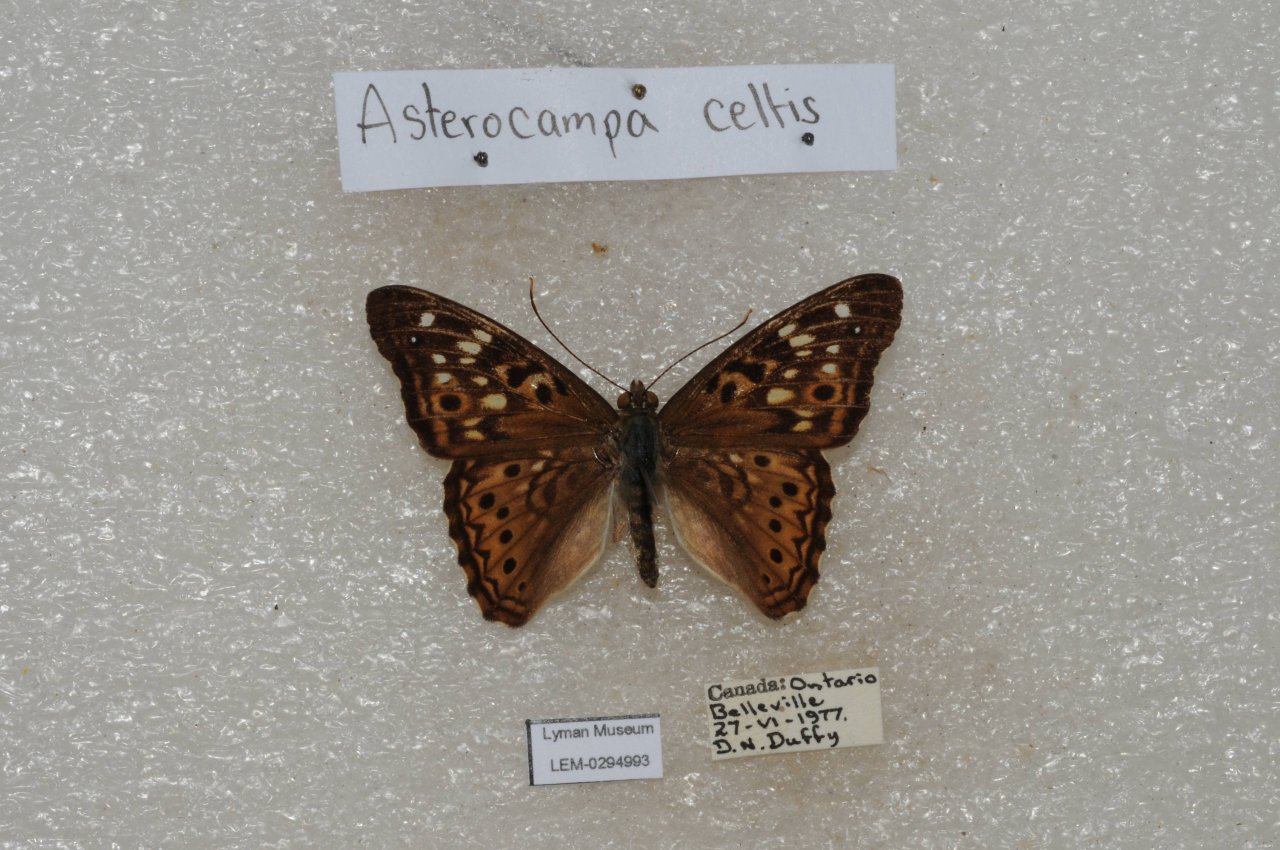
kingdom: Animalia
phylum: Arthropoda
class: Insecta
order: Lepidoptera
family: Nymphalidae
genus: Asterocampa
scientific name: Asterocampa celtis
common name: Hackberry Emperor
